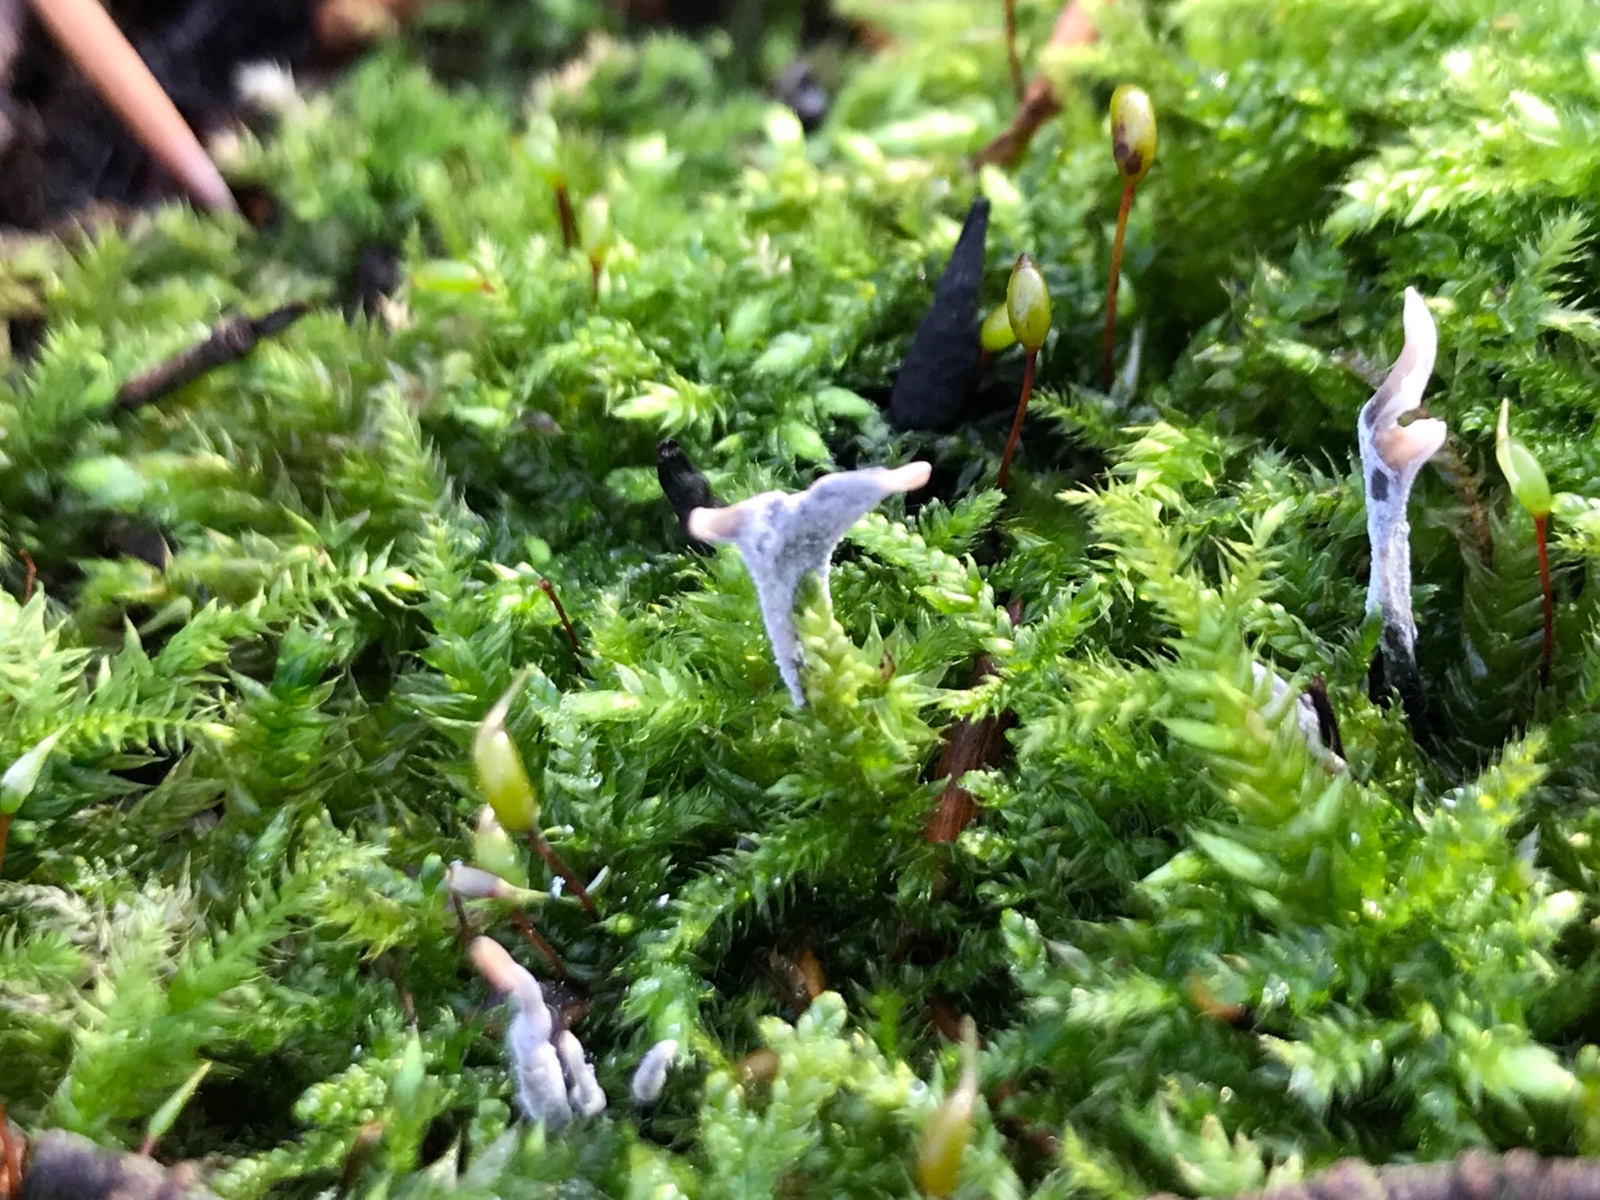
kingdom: Fungi
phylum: Ascomycota
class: Sordariomycetes
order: Xylariales
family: Xylariaceae
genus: Xylaria
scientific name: Xylaria hypoxylon
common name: grenet stødsvamp
